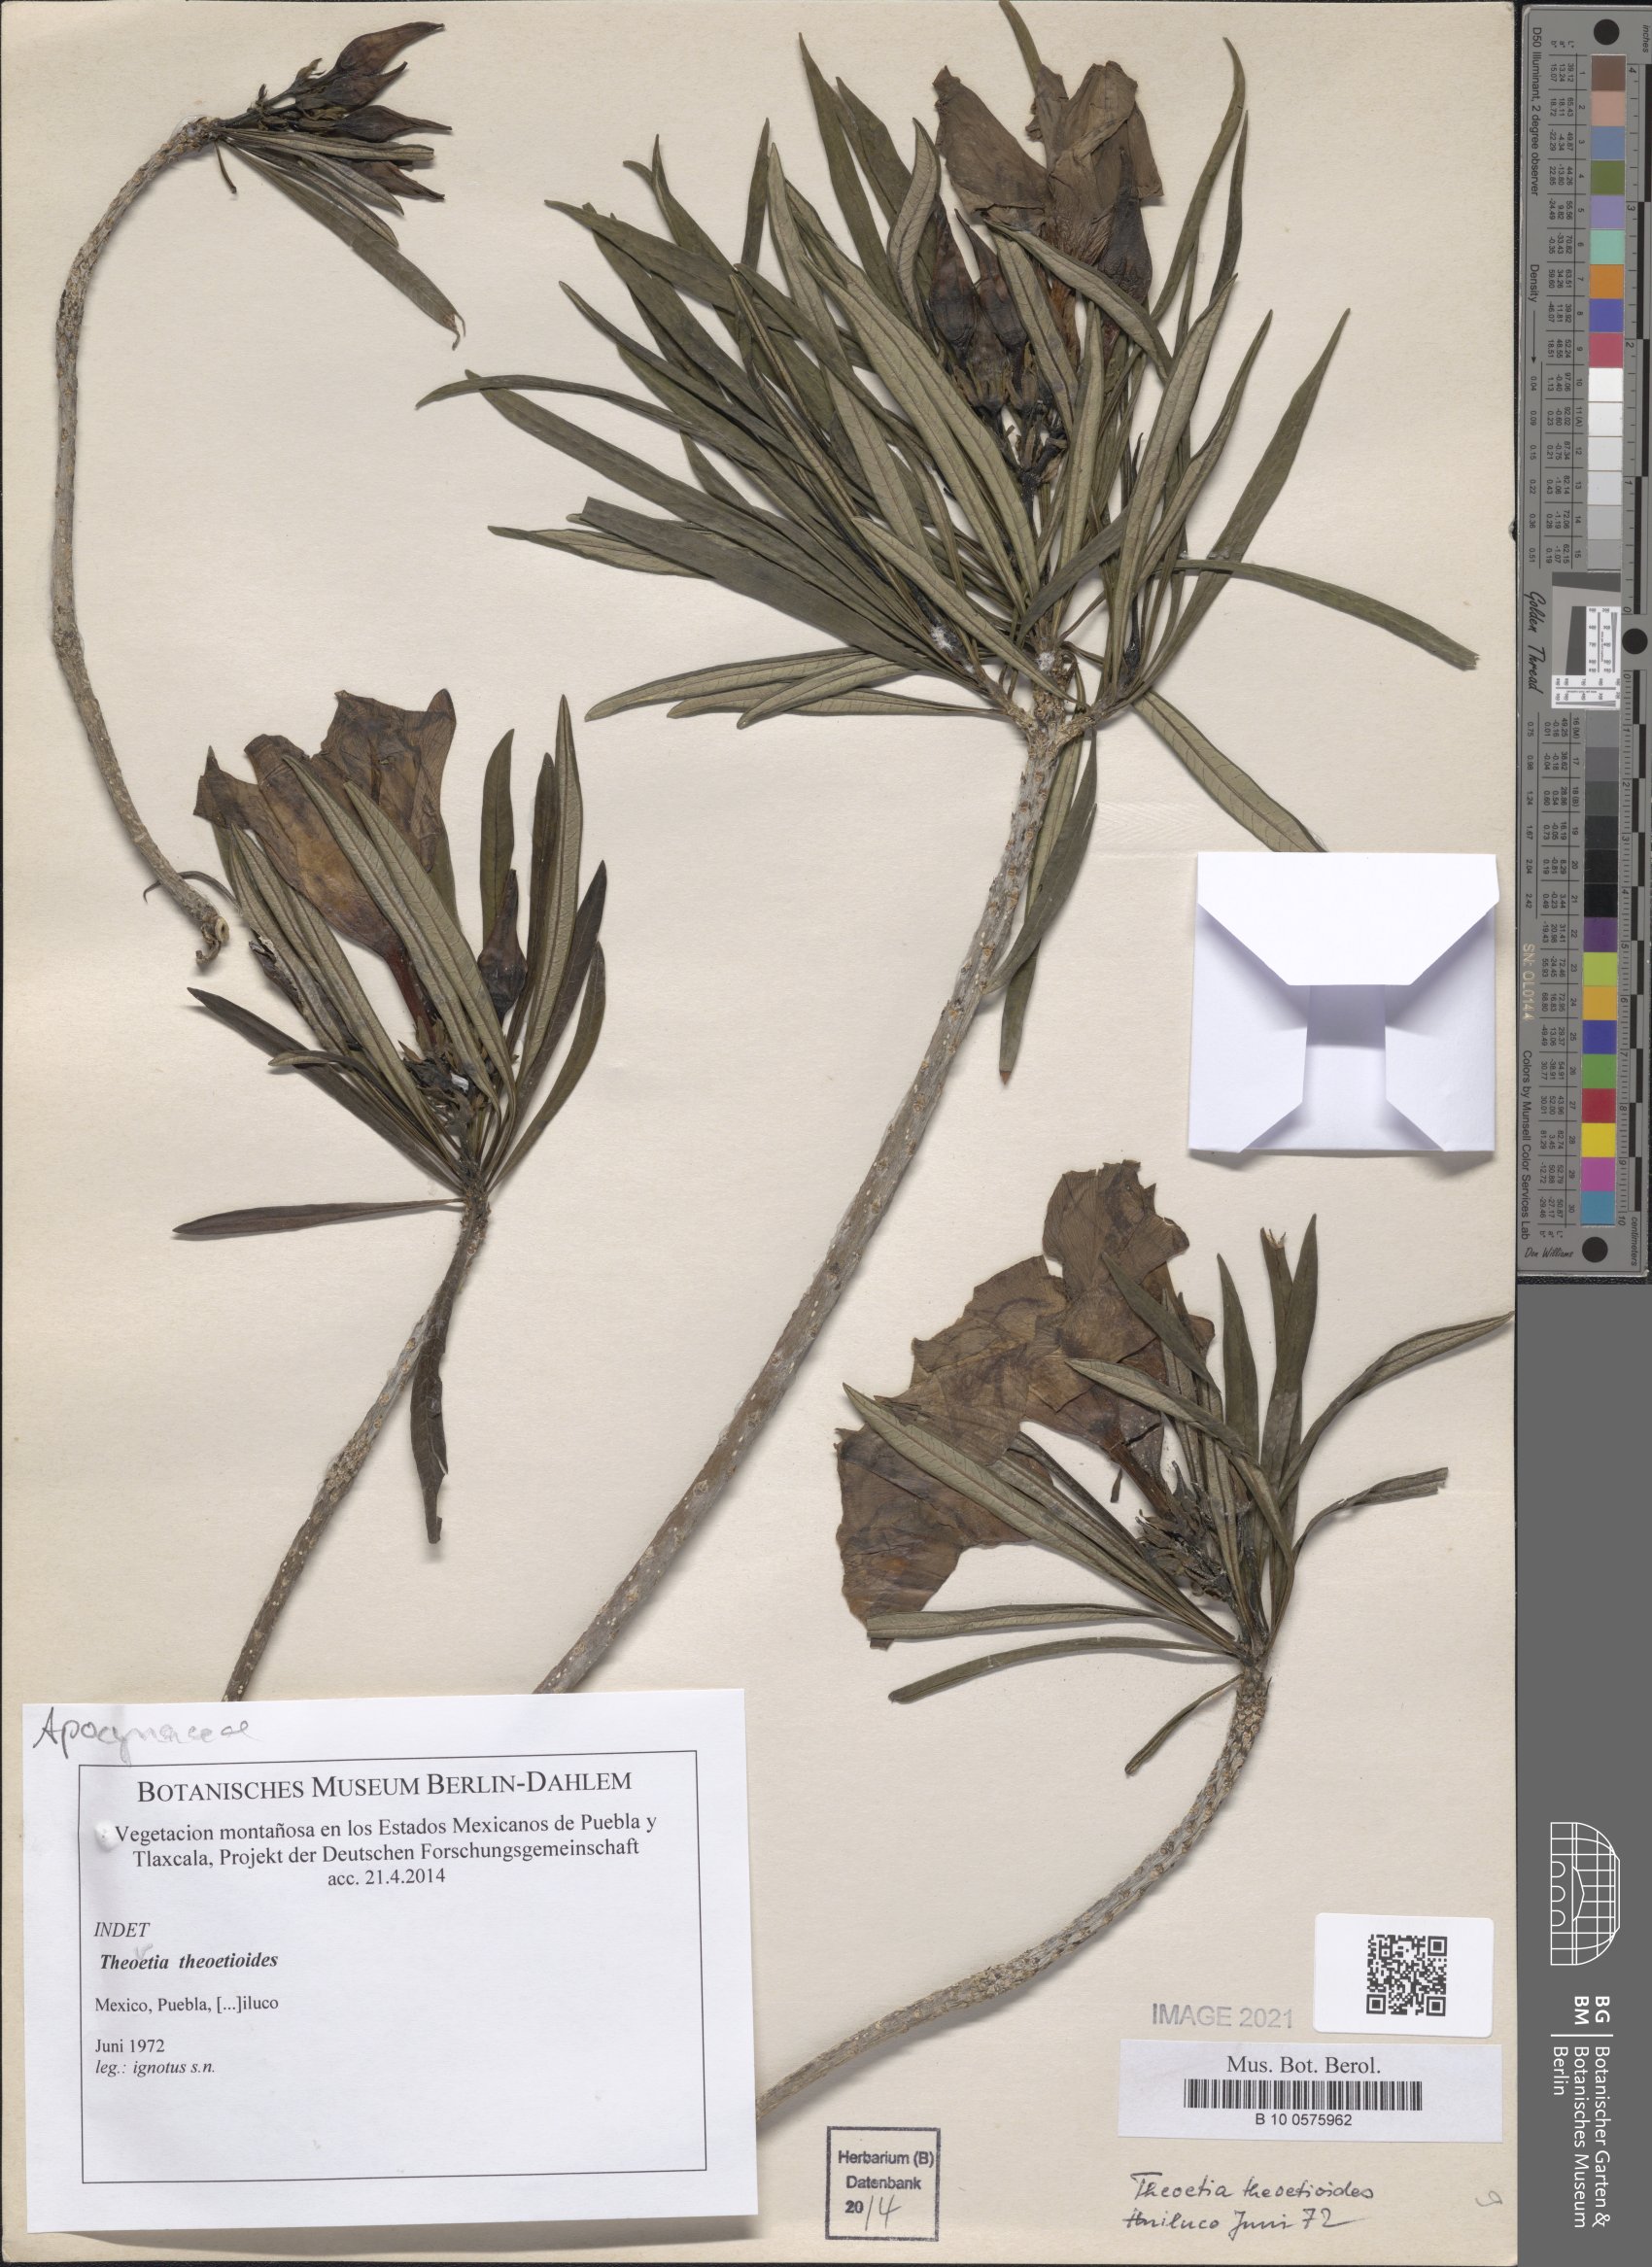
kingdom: Plantae
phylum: Tracheophyta
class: Magnoliopsida
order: Gentianales
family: Apocynaceae
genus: Cascabela
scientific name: Cascabela thevetioides
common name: Yellow oleander
